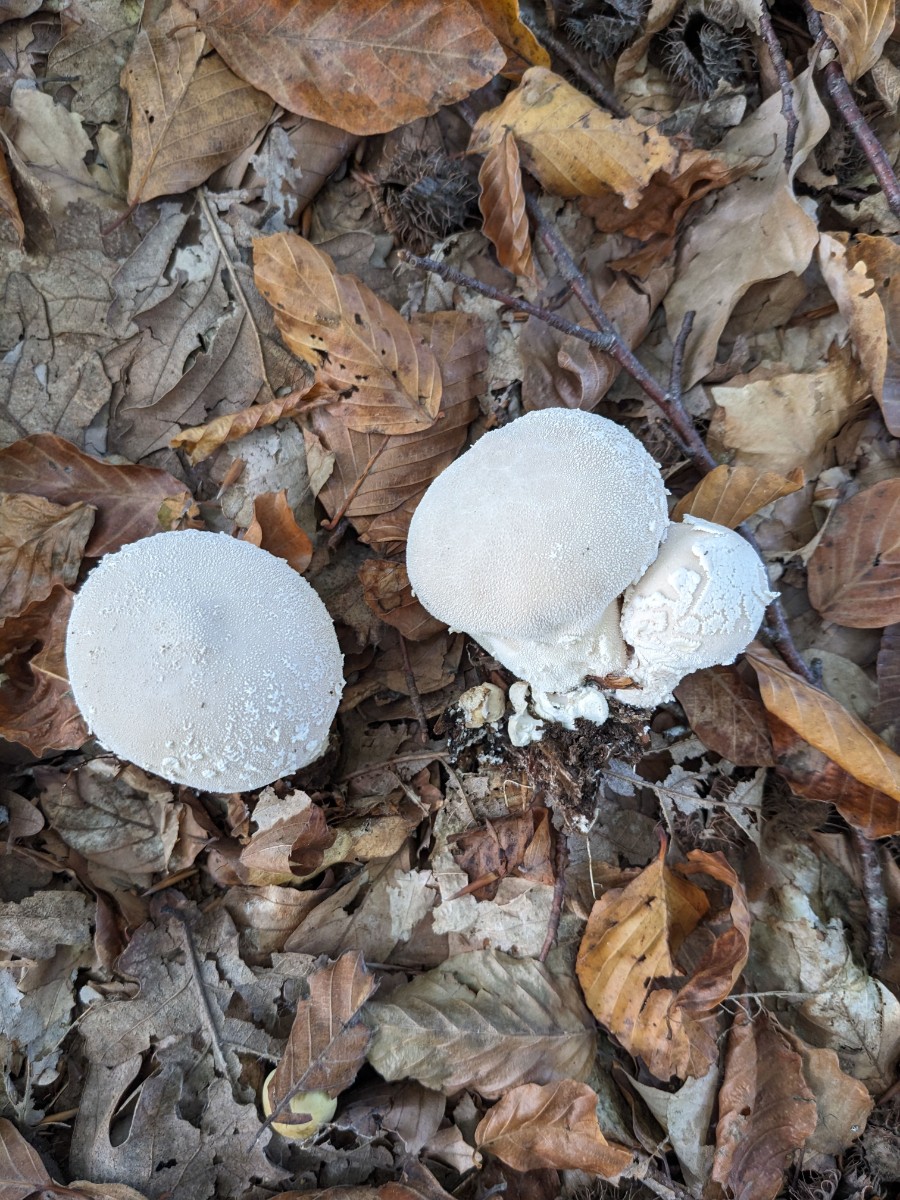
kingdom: Fungi
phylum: Basidiomycota
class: Agaricomycetes
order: Agaricales
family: Lycoperdaceae
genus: Lycoperdon
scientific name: Lycoperdon mammiforme
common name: rosa støvbold
